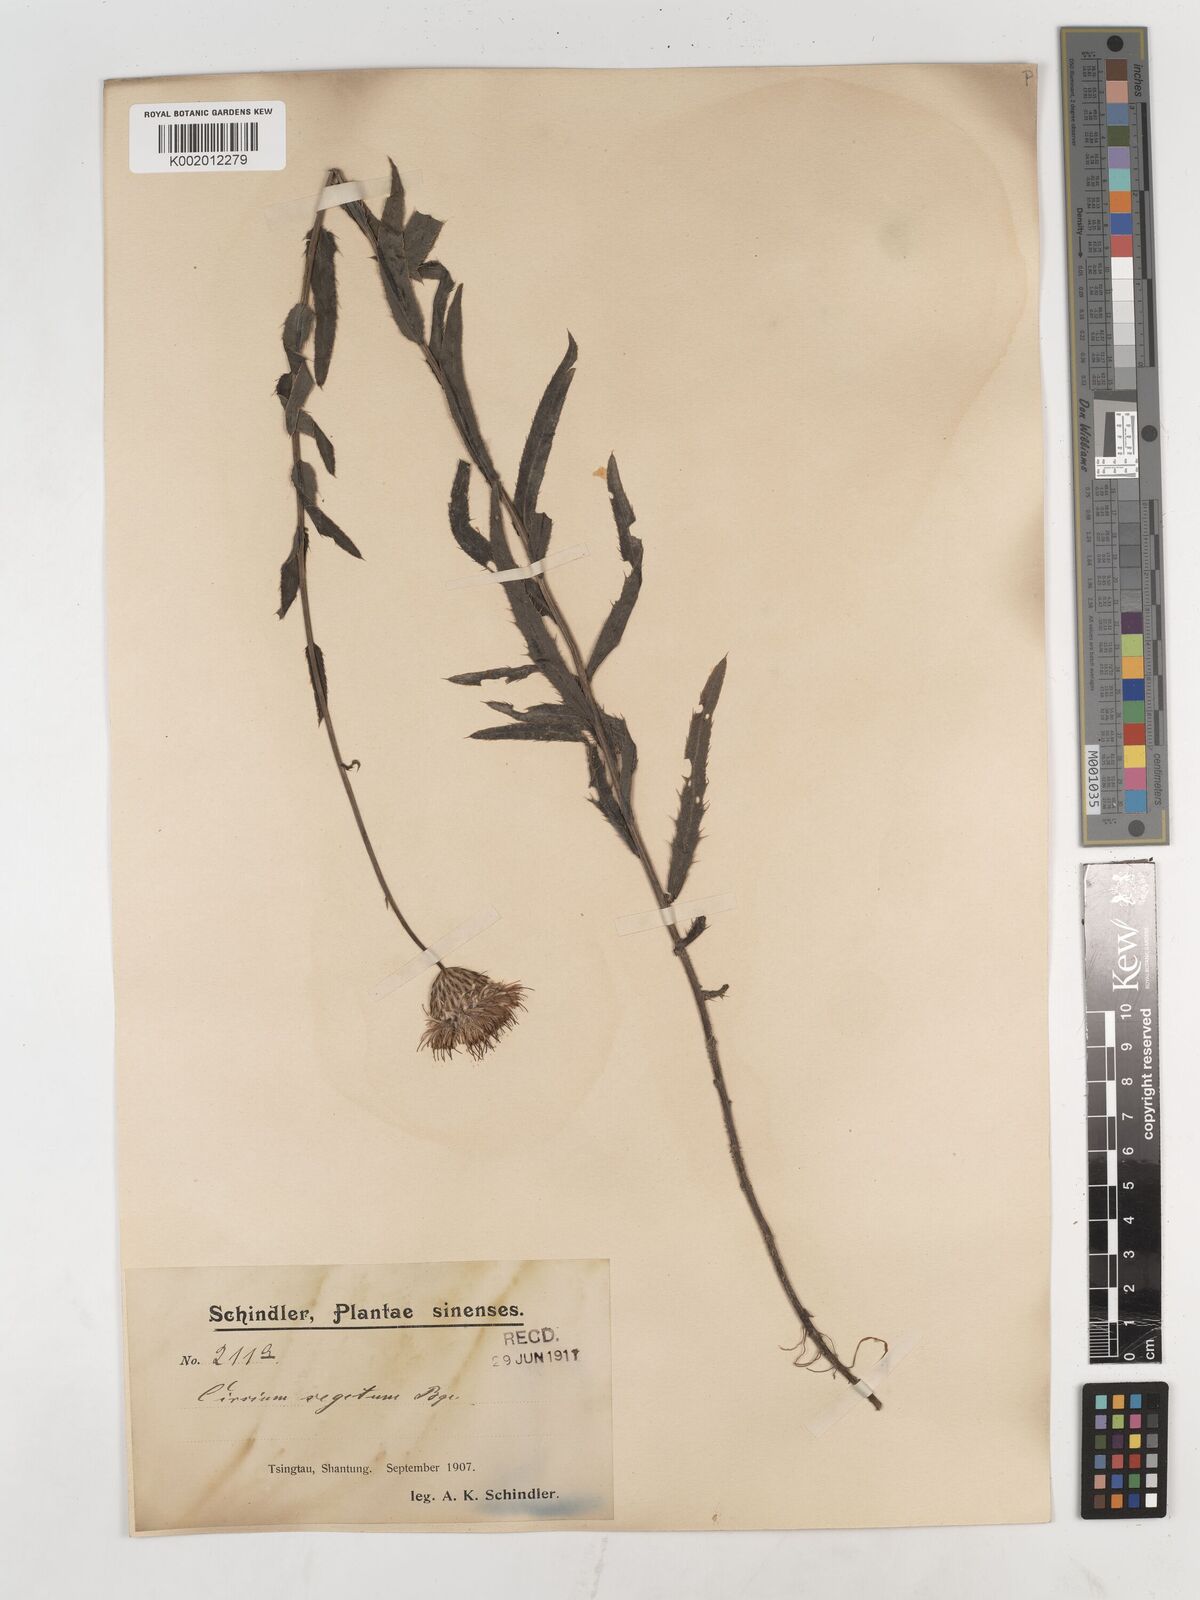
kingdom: Plantae
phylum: Tracheophyta
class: Magnoliopsida
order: Asterales
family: Asteraceae
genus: Cirsium
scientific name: Cirsium arvense
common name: Creeping thistle
